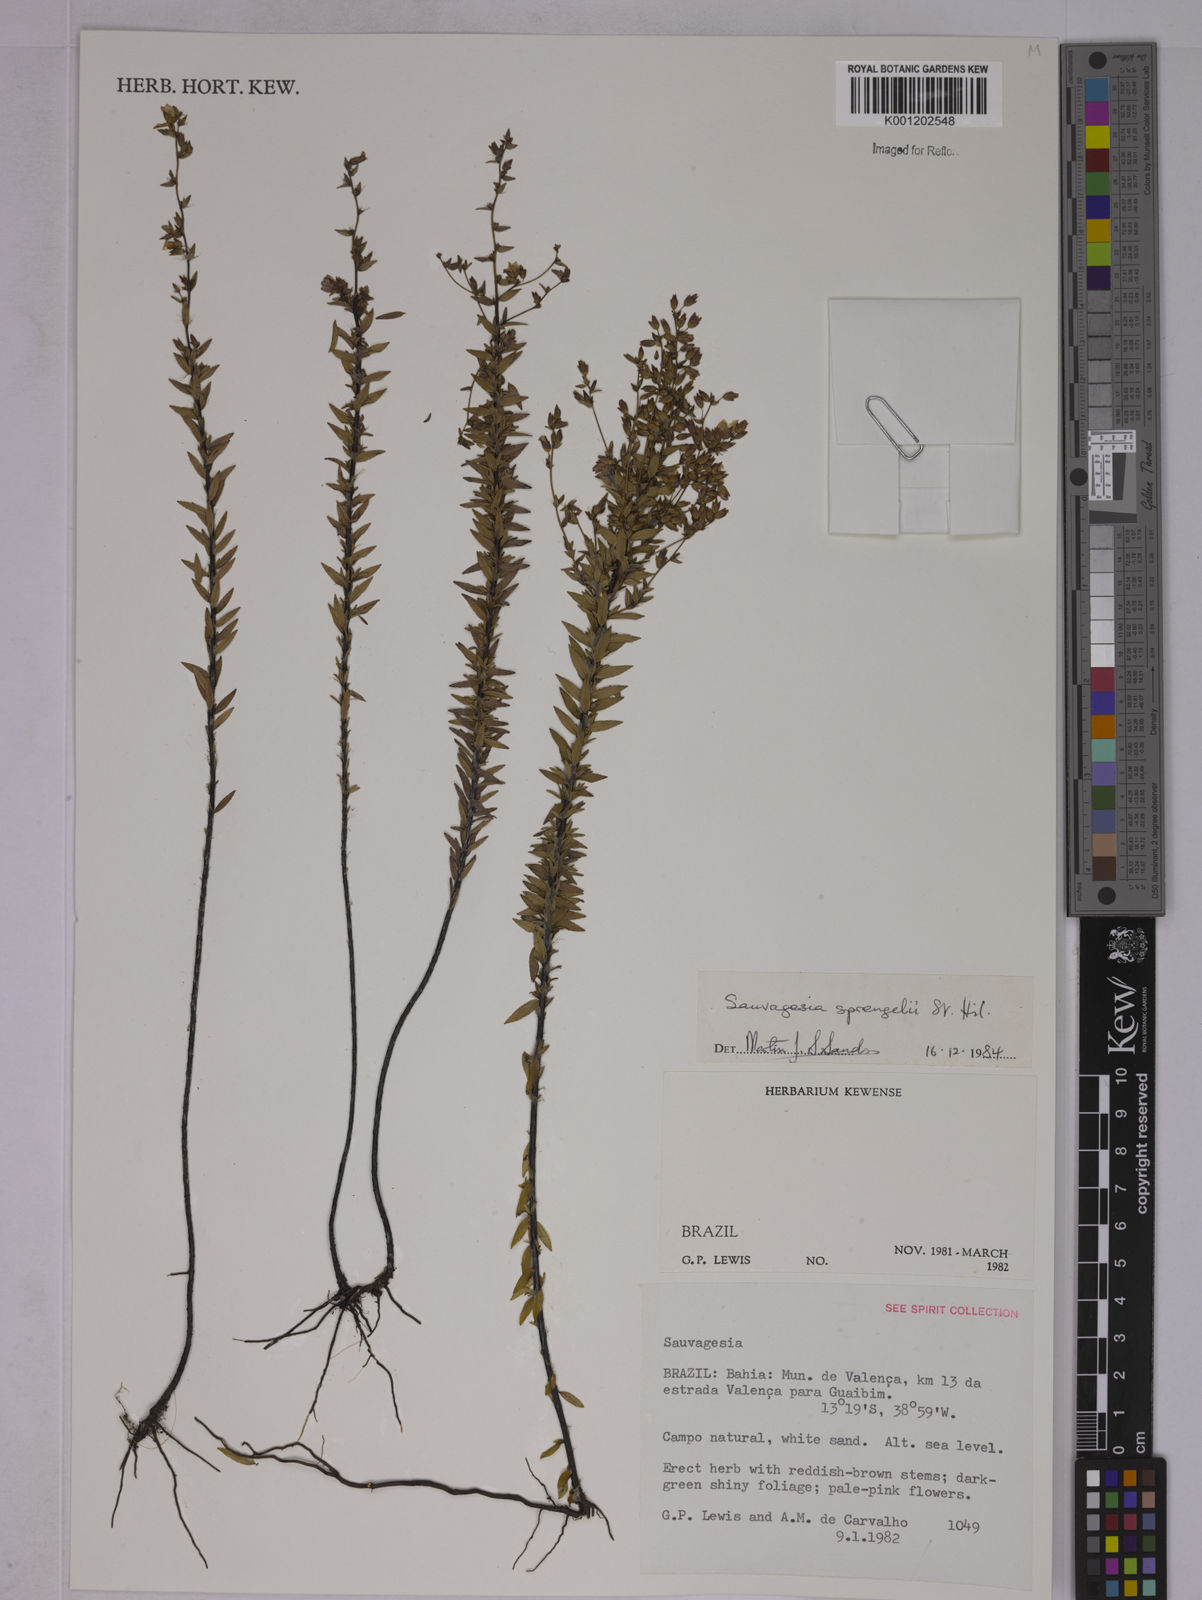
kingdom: Plantae
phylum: Tracheophyta
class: Magnoliopsida
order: Malpighiales
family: Ochnaceae
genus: Sauvagesia
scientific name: Sauvagesia sprengelii
